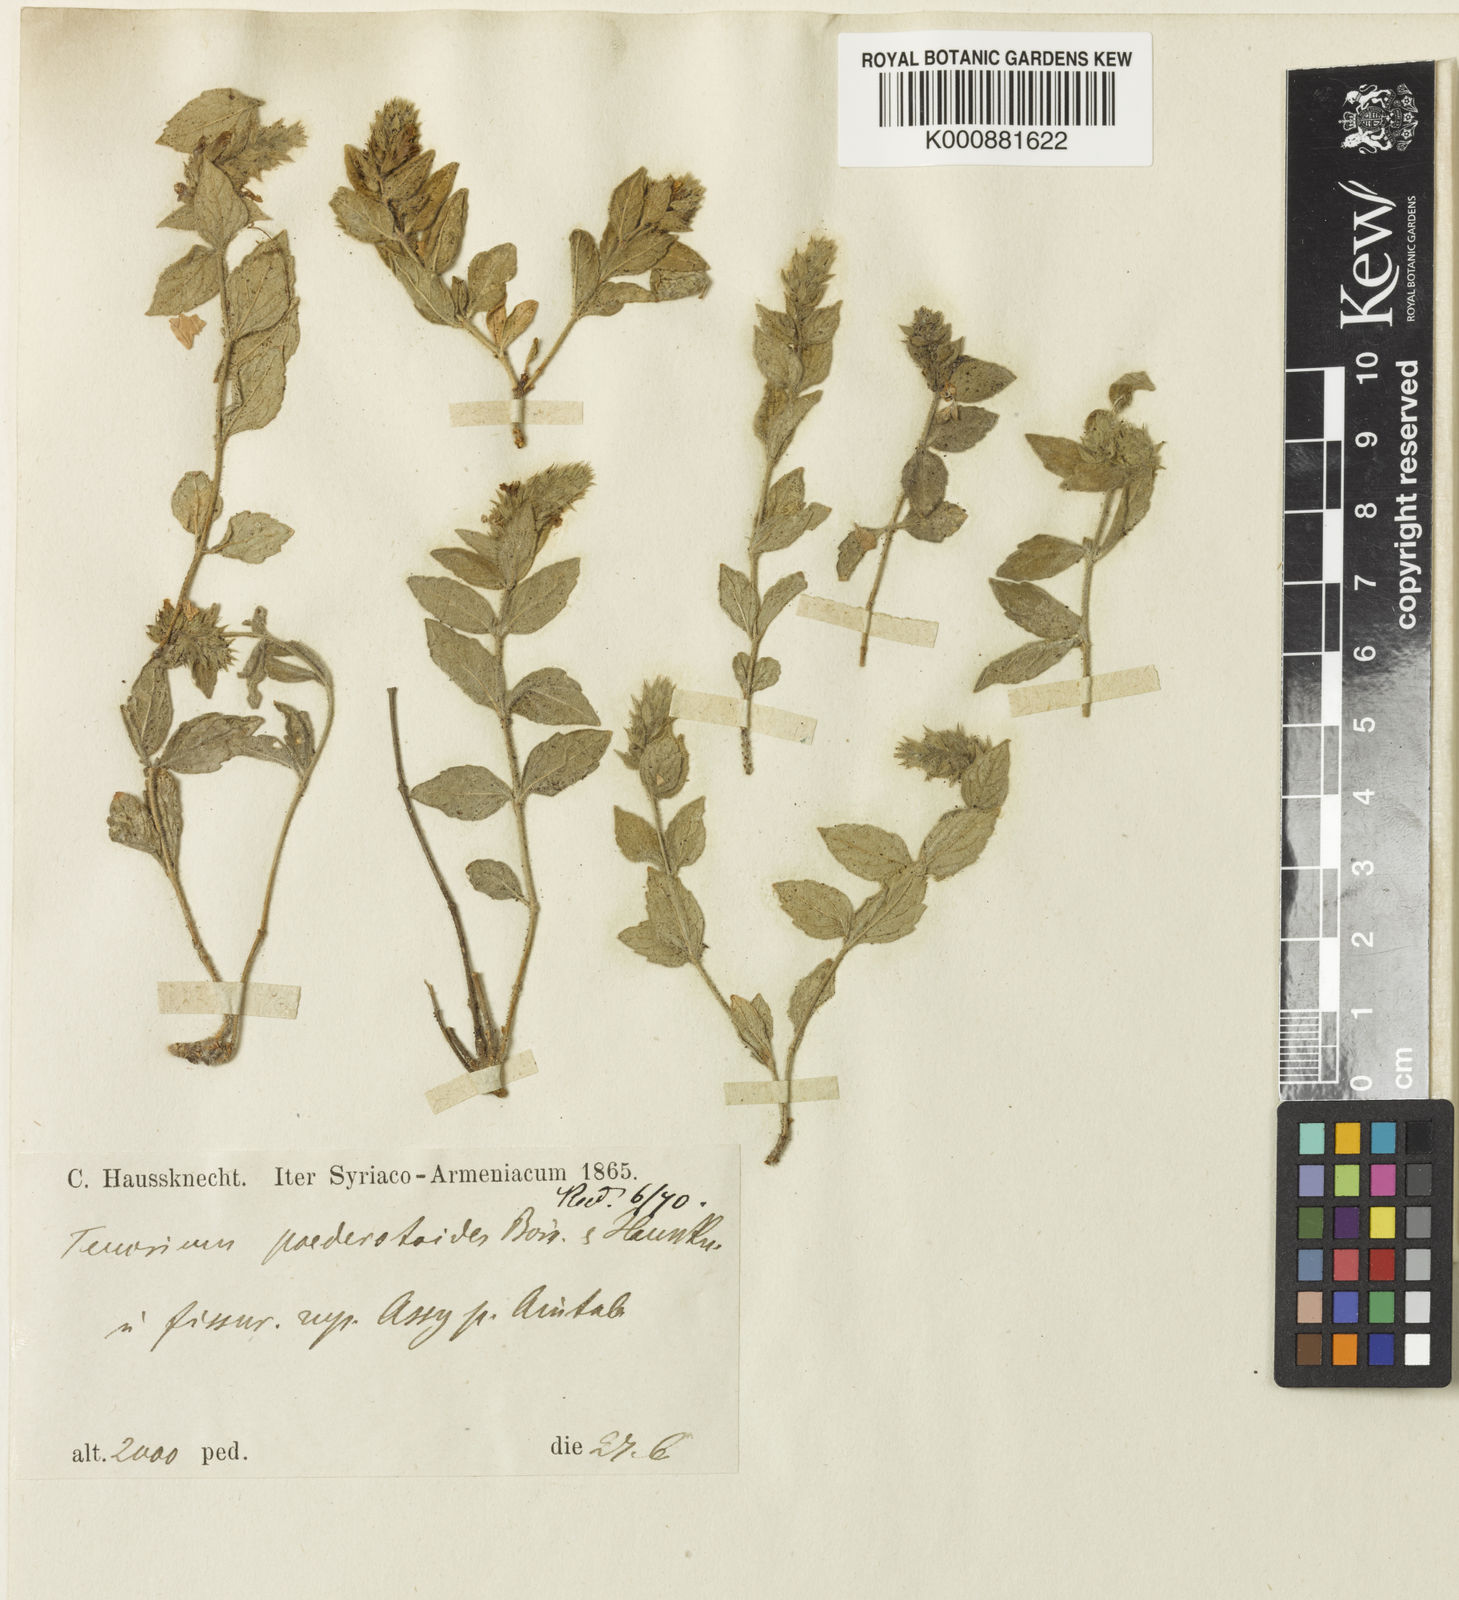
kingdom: Plantae
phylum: Tracheophyta
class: Magnoliopsida
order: Lamiales
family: Lamiaceae
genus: Teucrium
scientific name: Teucrium paederotoides
